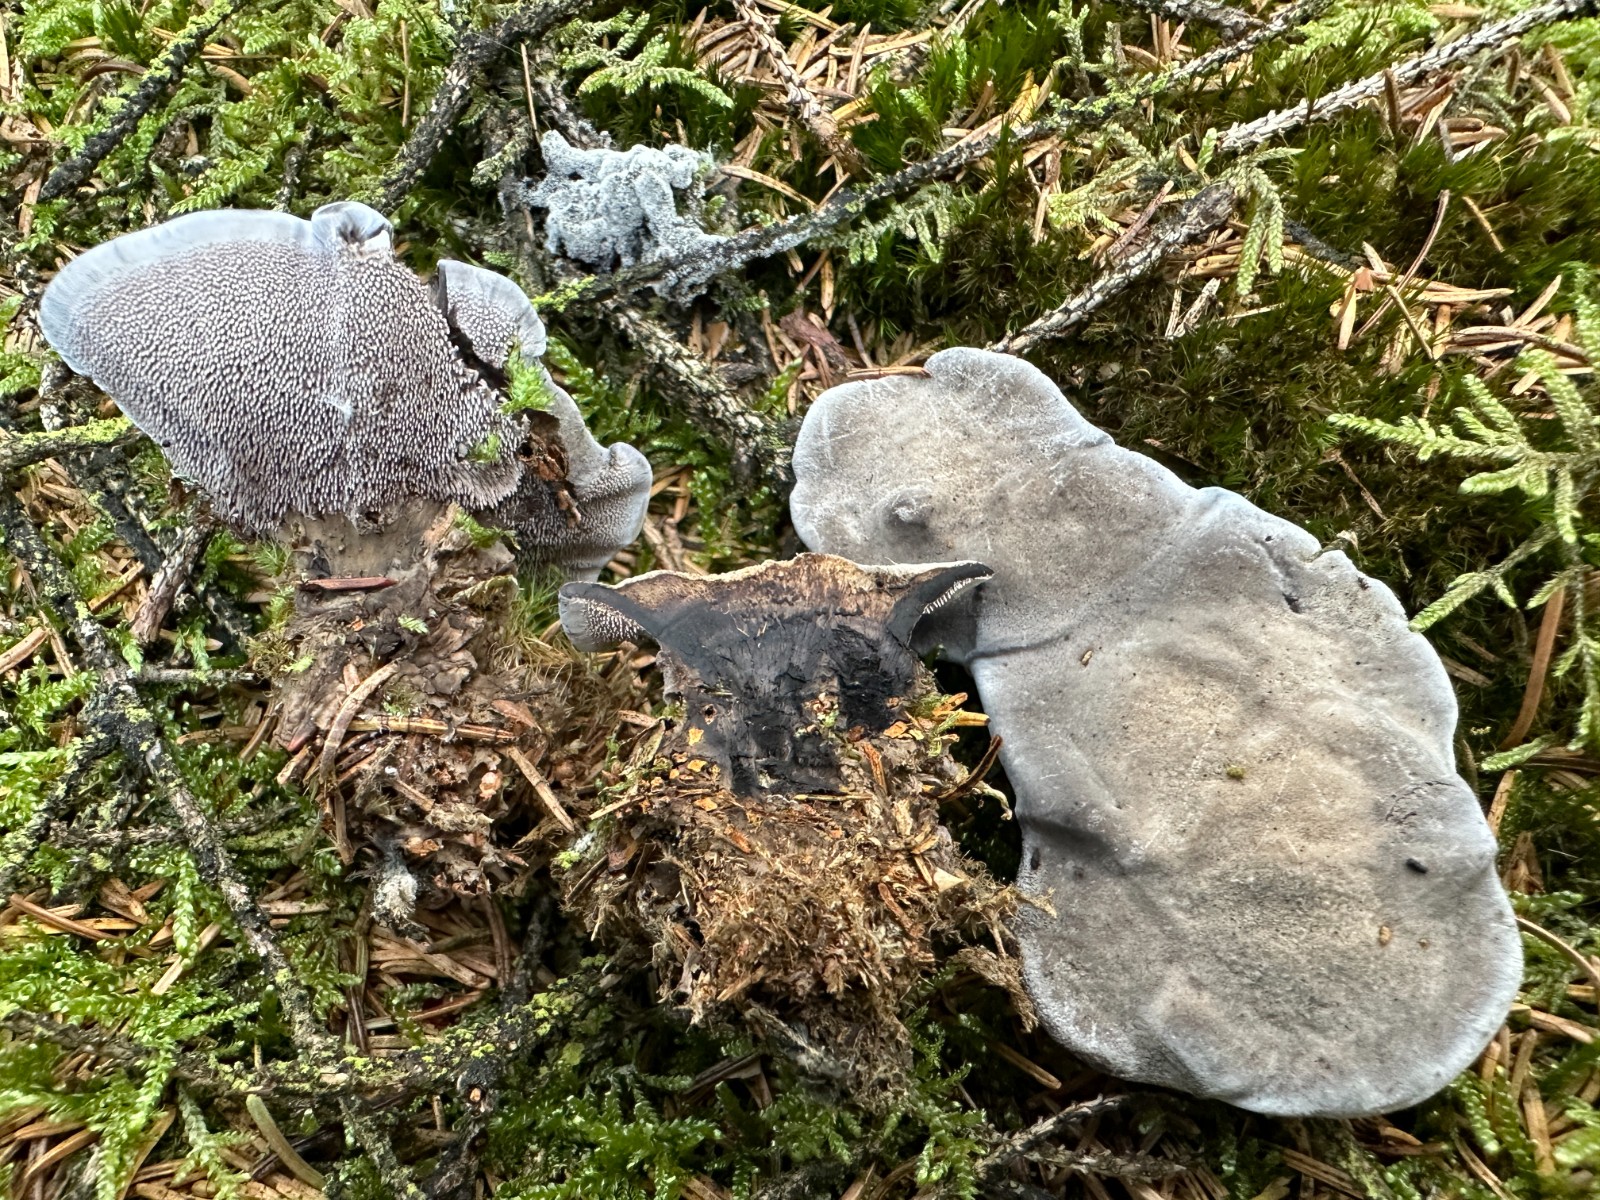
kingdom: Fungi
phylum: Basidiomycota
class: Agaricomycetes
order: Thelephorales
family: Thelephoraceae
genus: Phellodon
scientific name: Phellodon
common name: mørk duftpigsvamp
